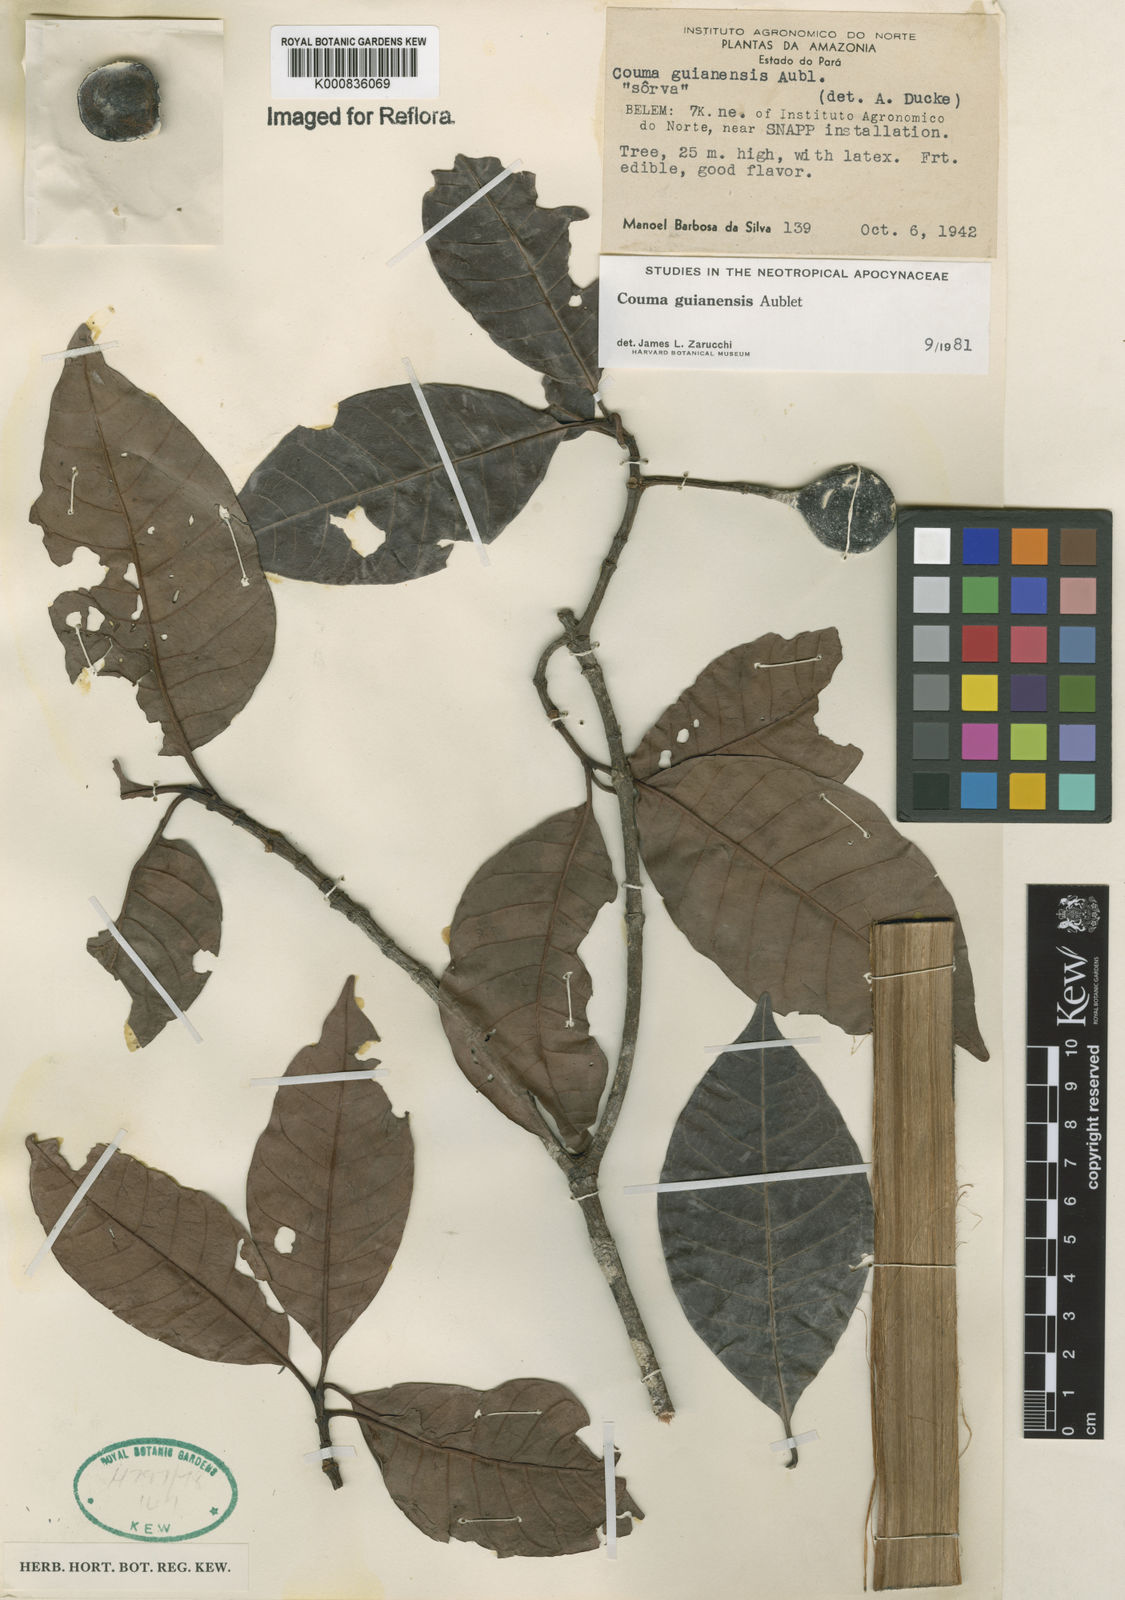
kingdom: Plantae
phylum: Tracheophyta
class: Magnoliopsida
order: Gentianales
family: Apocynaceae
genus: Couma
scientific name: Couma guianensis
